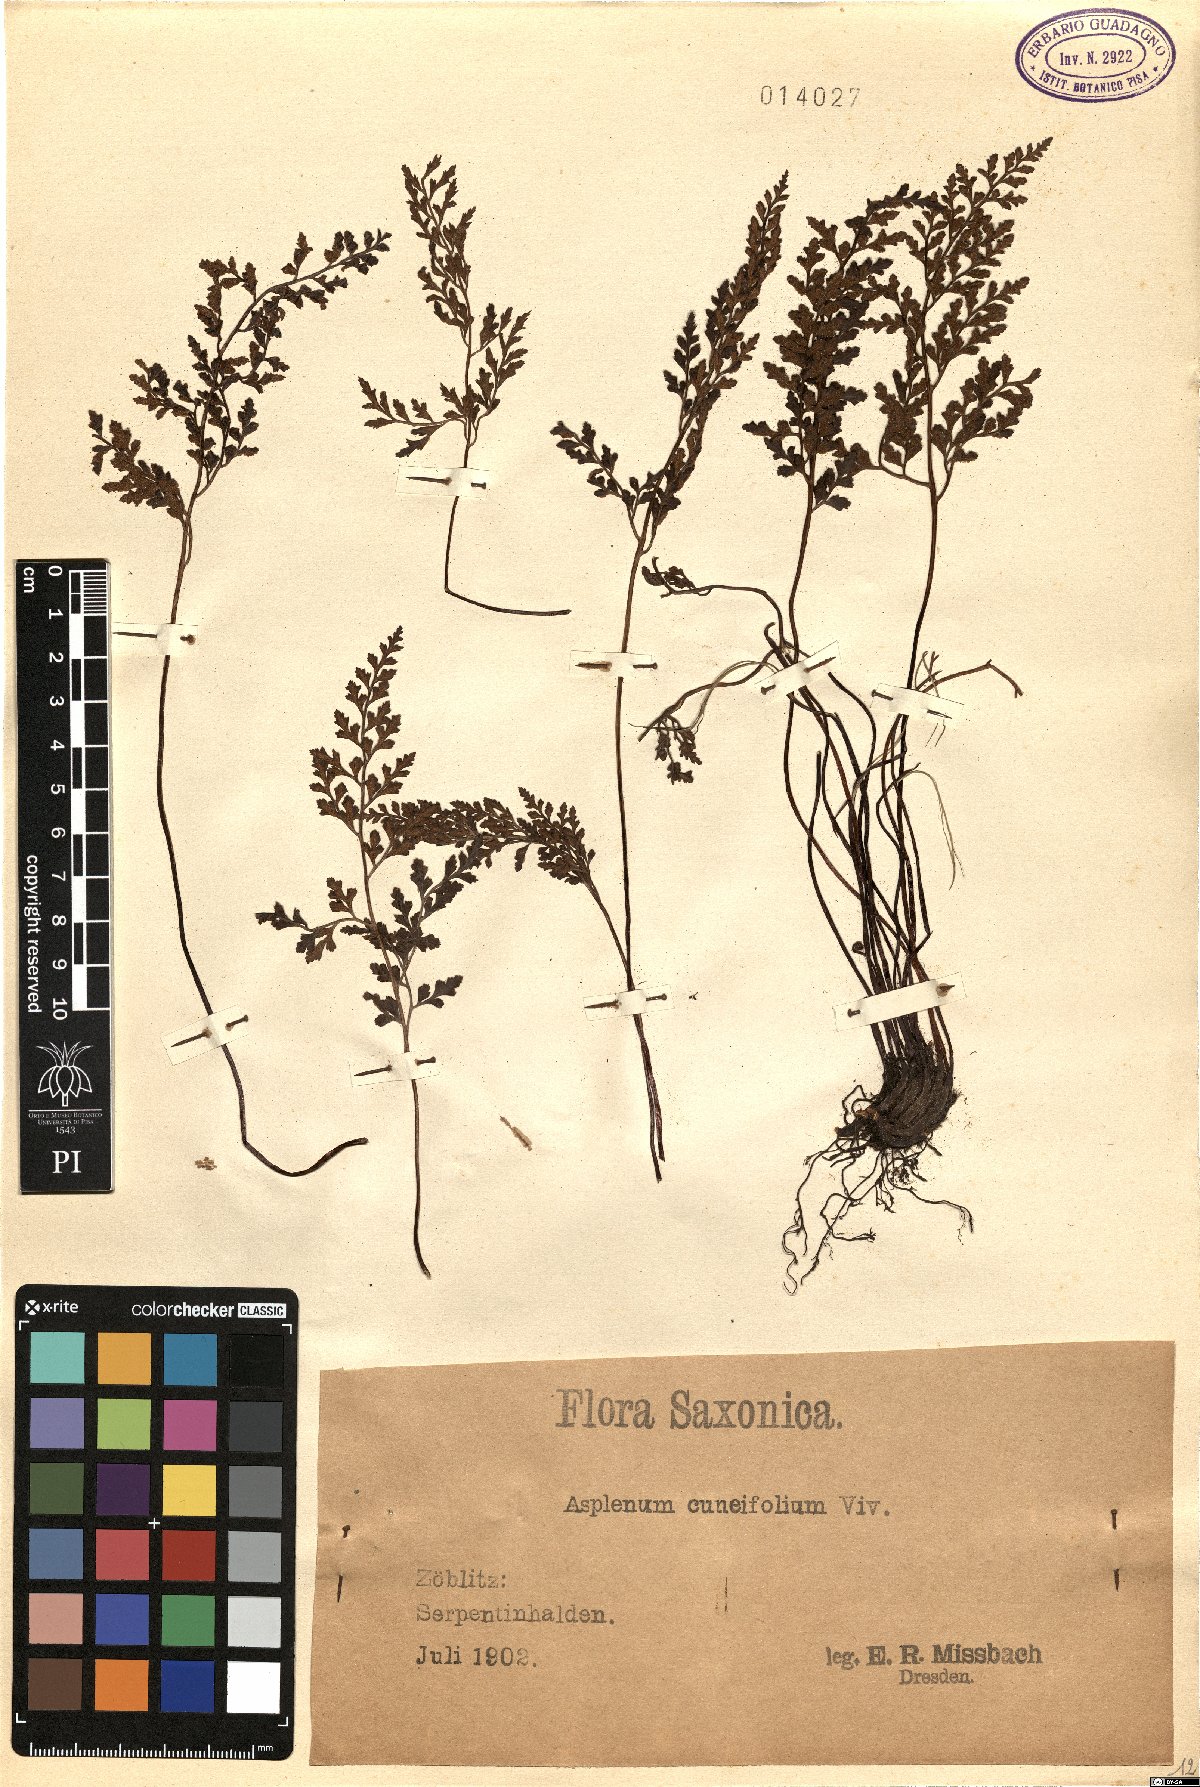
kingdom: Plantae
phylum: Tracheophyta
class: Polypodiopsida
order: Polypodiales
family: Aspleniaceae
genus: Asplenium
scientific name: Asplenium cuneifolium
